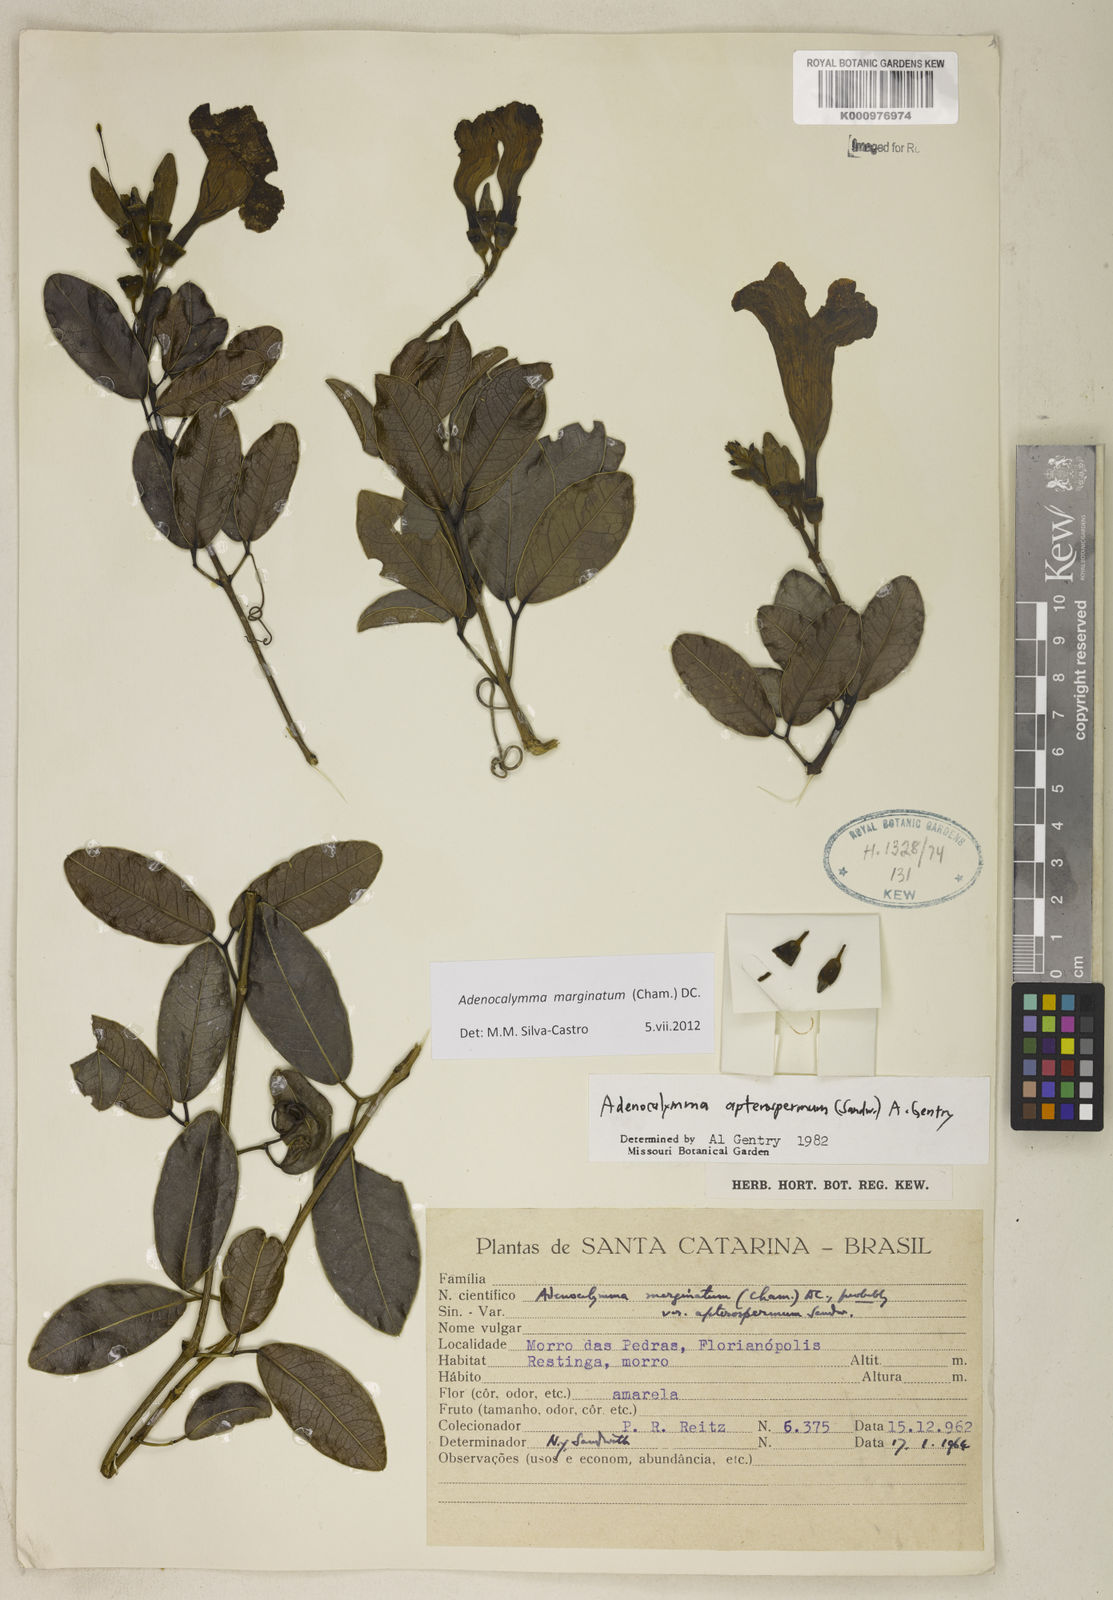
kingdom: Plantae
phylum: Tracheophyta
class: Magnoliopsida
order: Lamiales
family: Bignoniaceae
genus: Adenocalymma
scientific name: Adenocalymma marginatum
